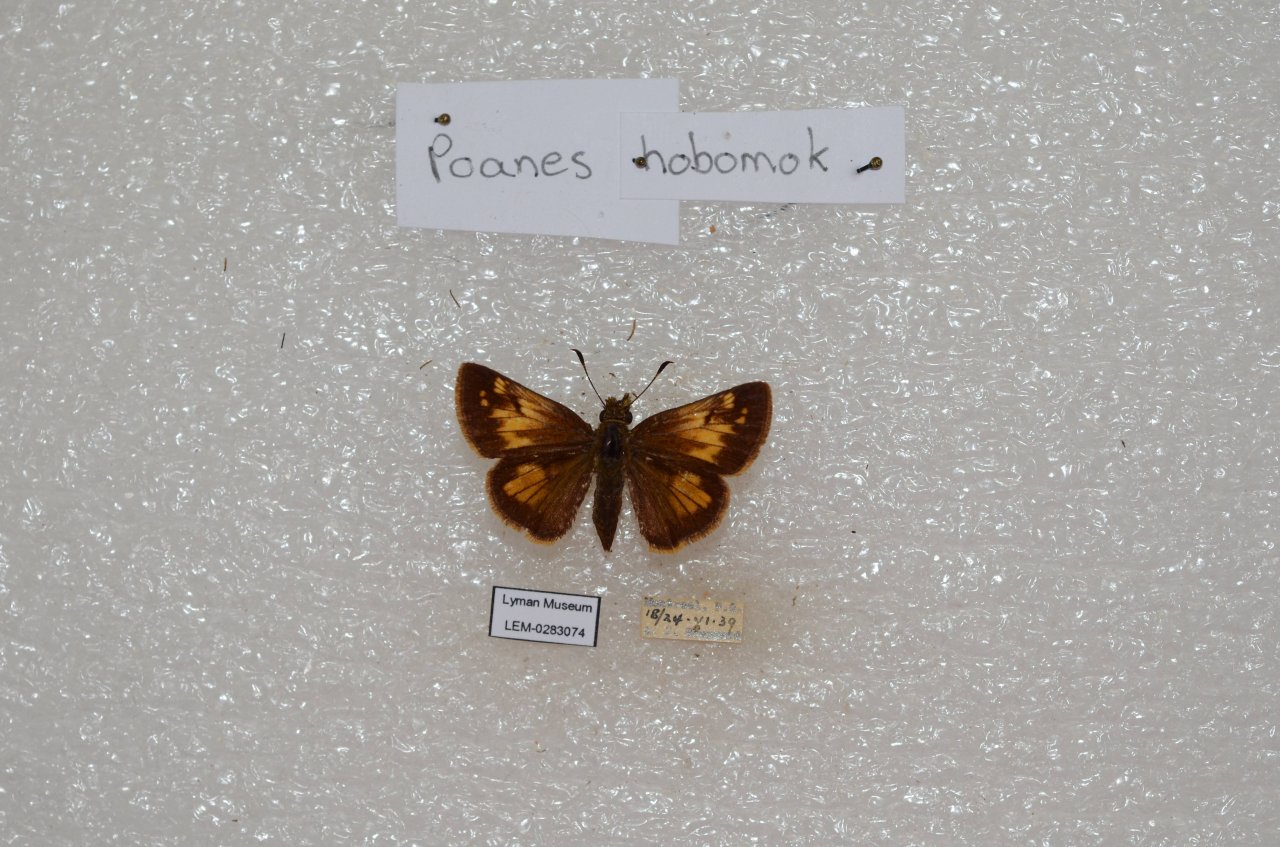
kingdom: Animalia
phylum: Arthropoda
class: Insecta
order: Lepidoptera
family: Hesperiidae
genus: Lon
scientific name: Lon hobomok
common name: Hobomok Skipper
